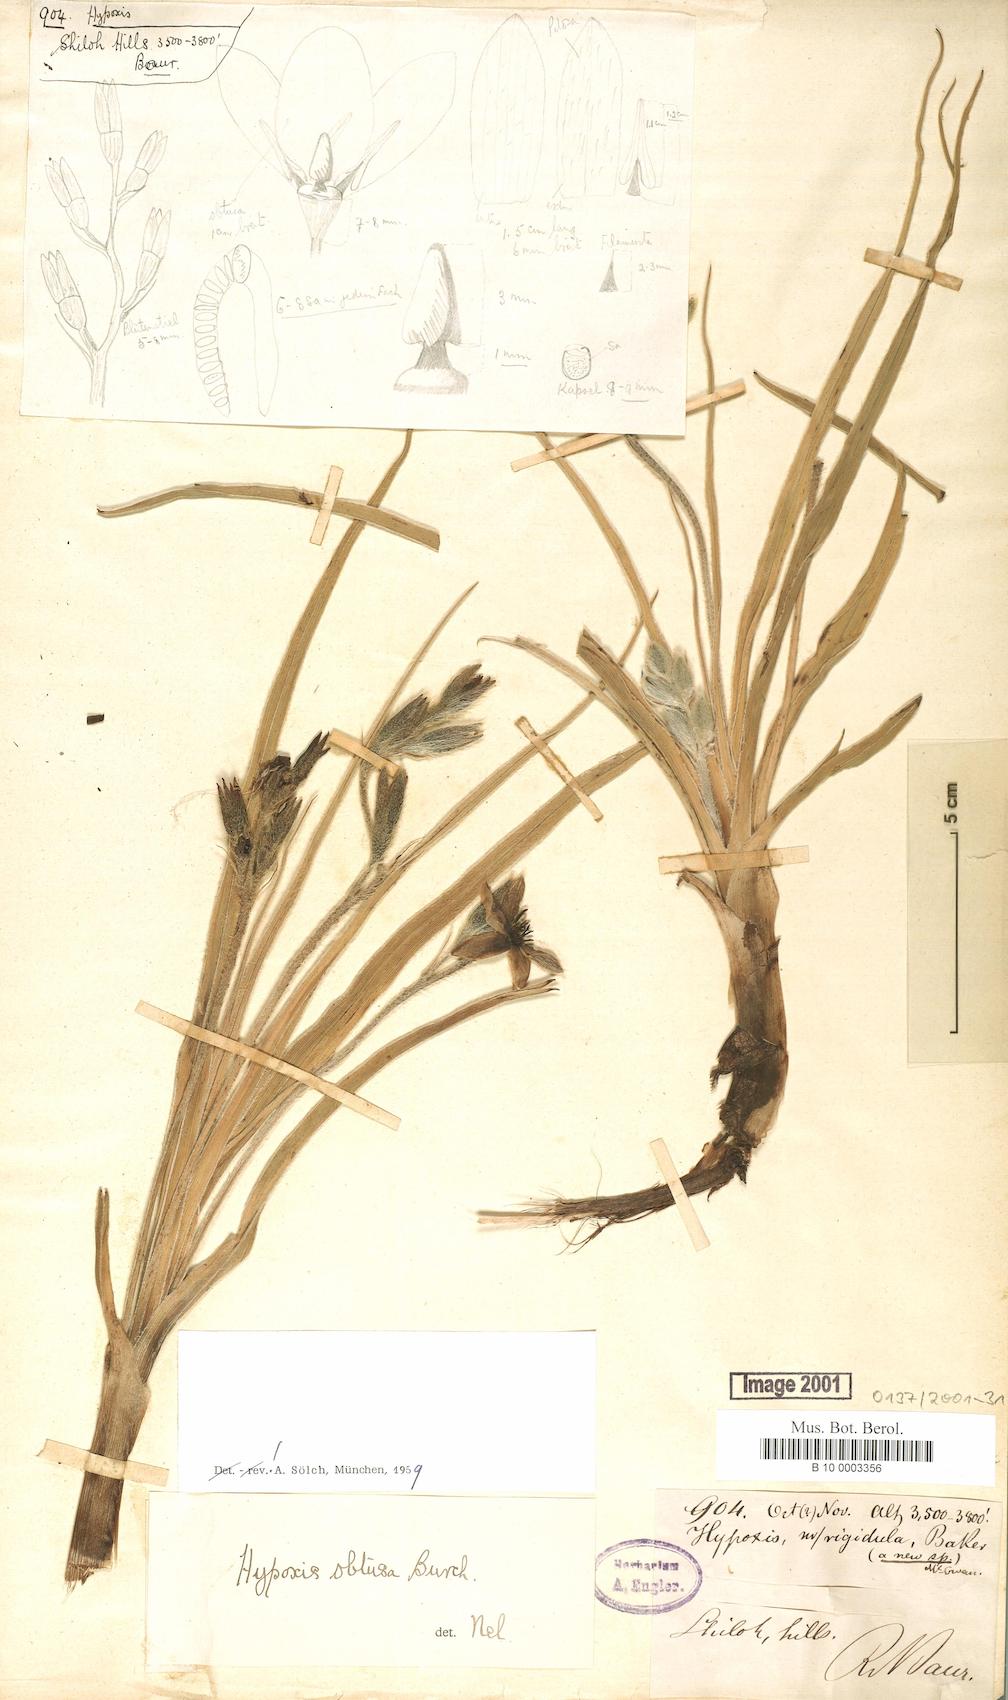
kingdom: Plantae
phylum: Tracheophyta
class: Liliopsida
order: Asparagales
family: Hypoxidaceae
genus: Hypoxis
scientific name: Hypoxis obtusa
